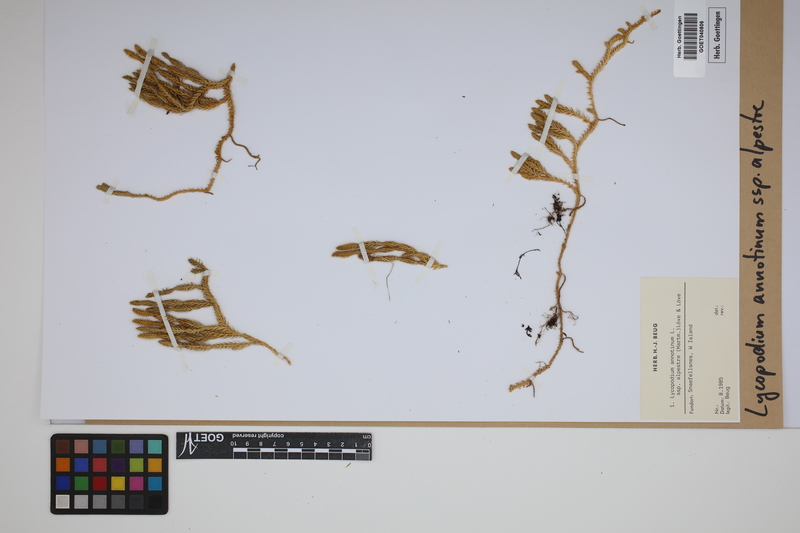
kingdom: Plantae
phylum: Tracheophyta
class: Lycopodiopsida
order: Lycopodiales
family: Lycopodiaceae
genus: Spinulum
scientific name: Spinulum annotinum
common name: Interrupted club-moss
